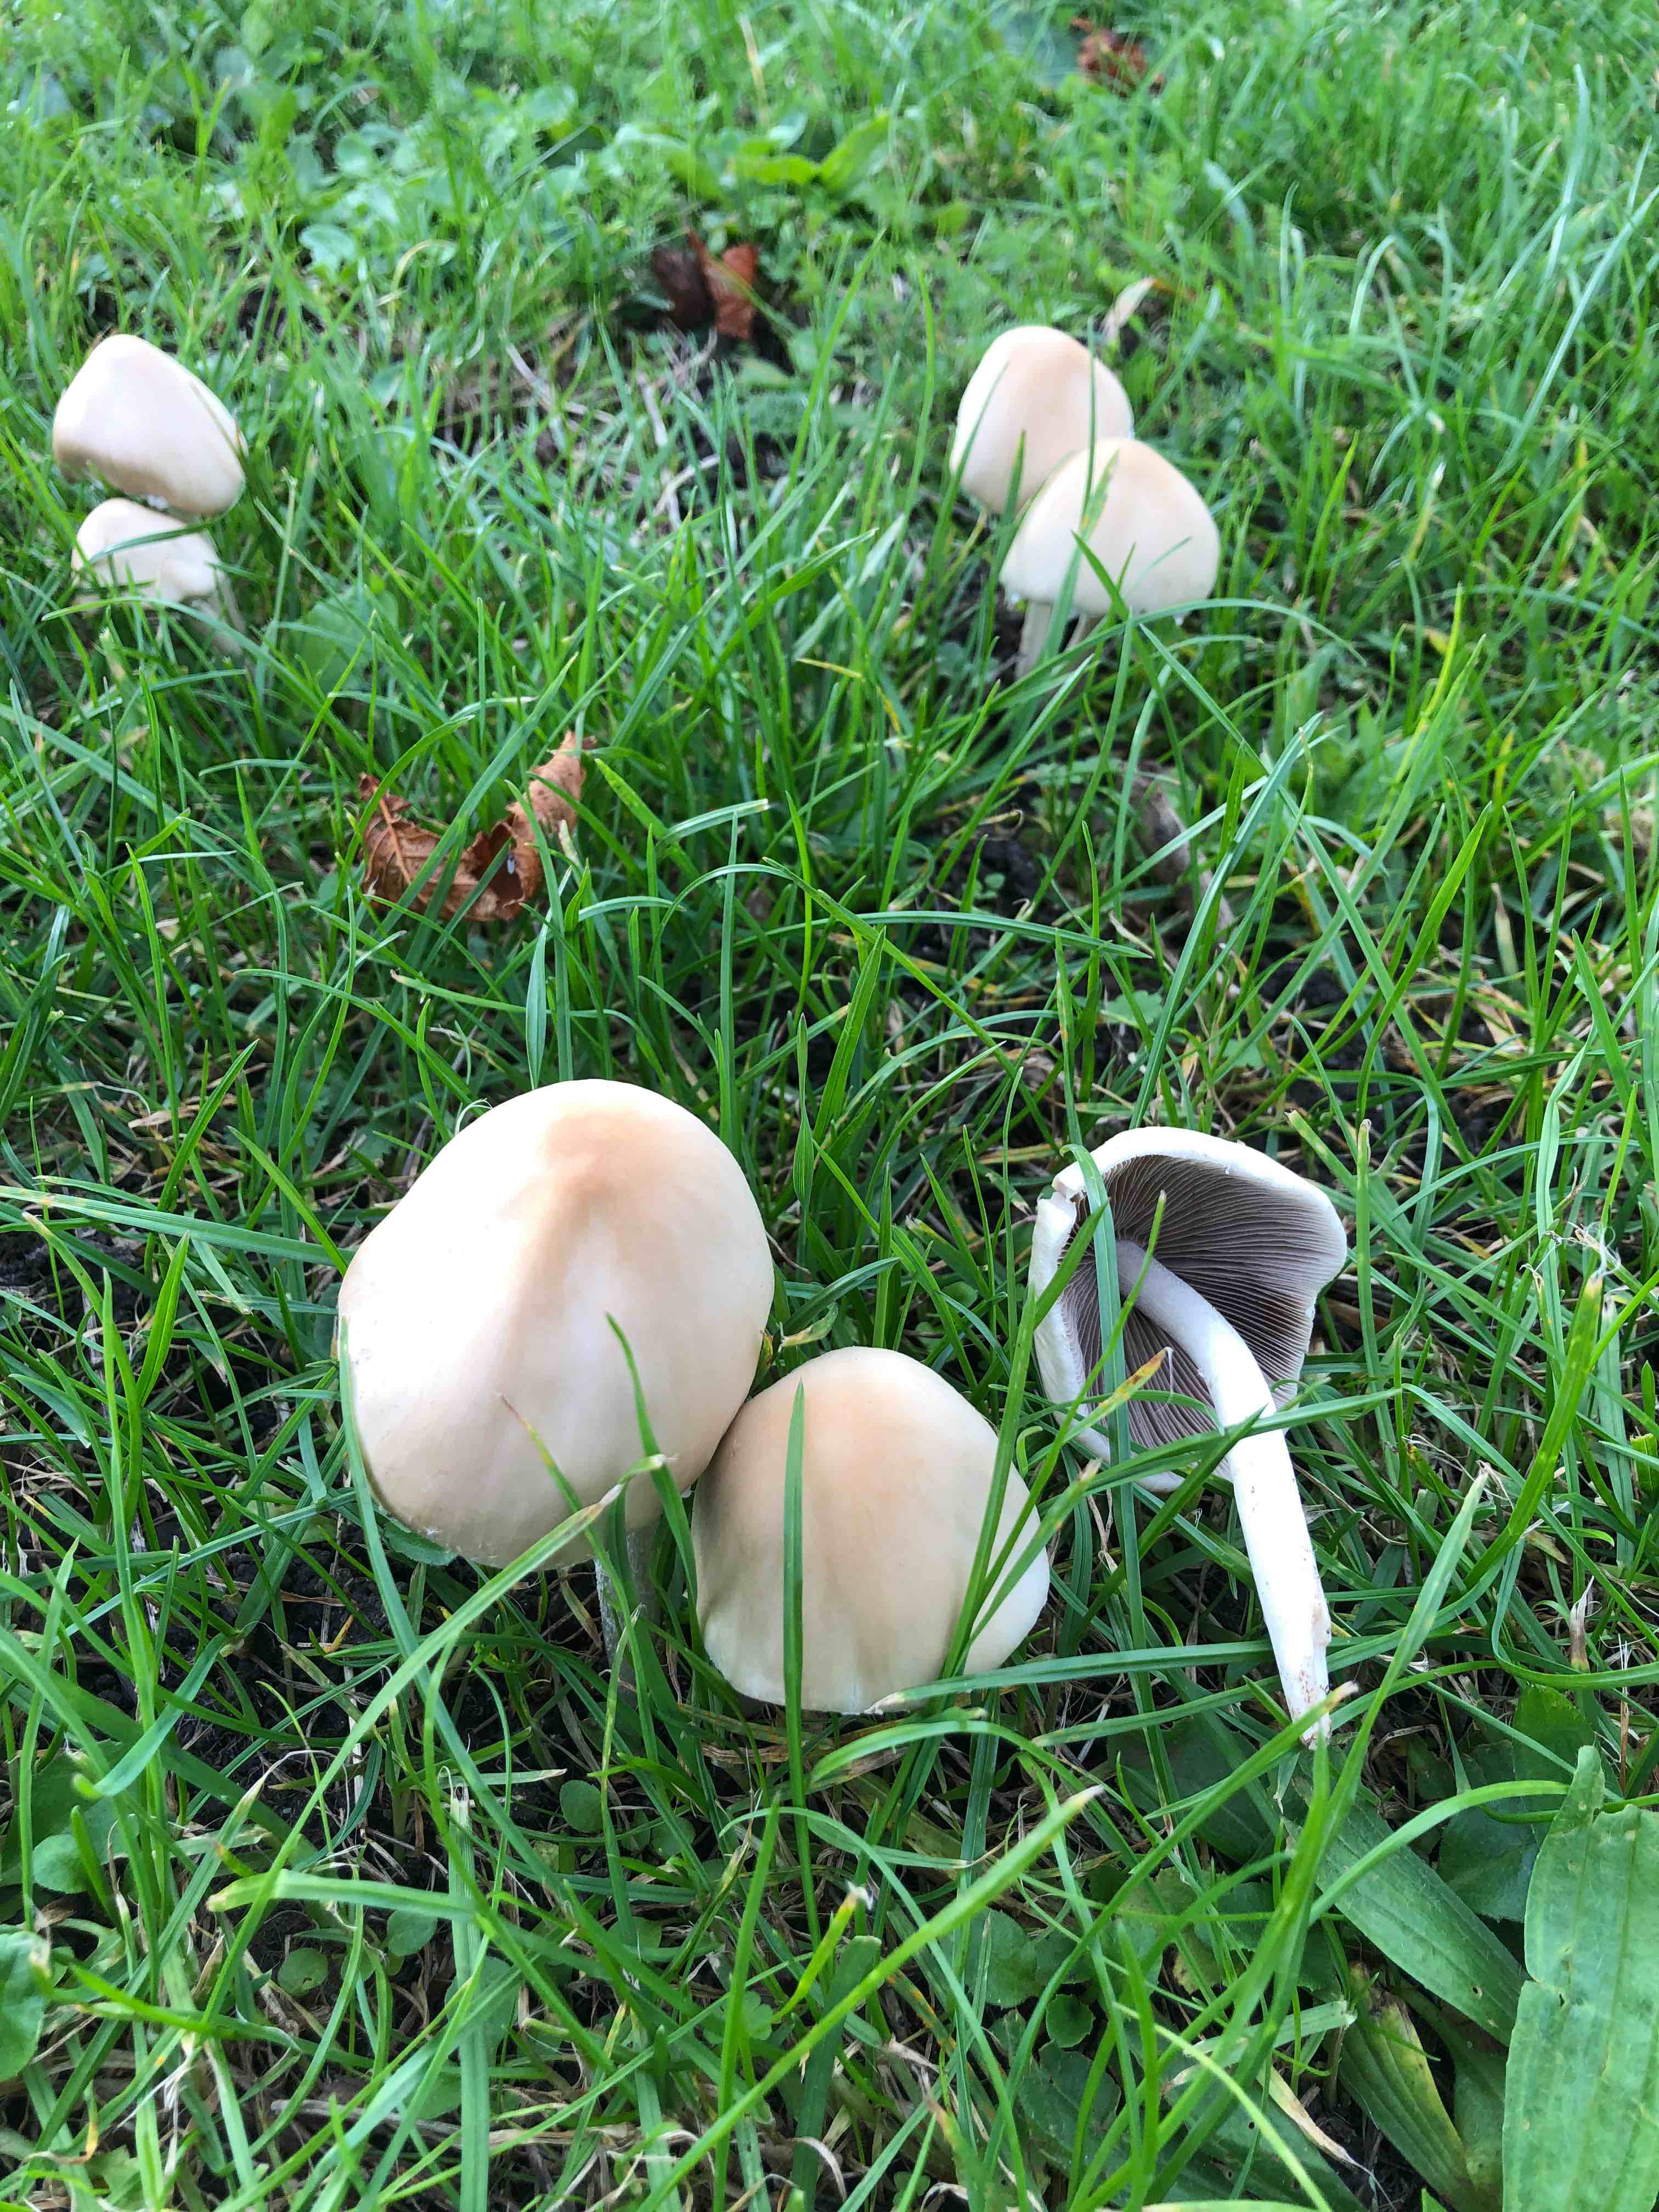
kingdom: Fungi
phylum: Basidiomycota
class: Agaricomycetes
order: Agaricales
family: Psathyrellaceae
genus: Candolleomyces
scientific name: Candolleomyces candolleanus
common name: Candolles mørkhat
